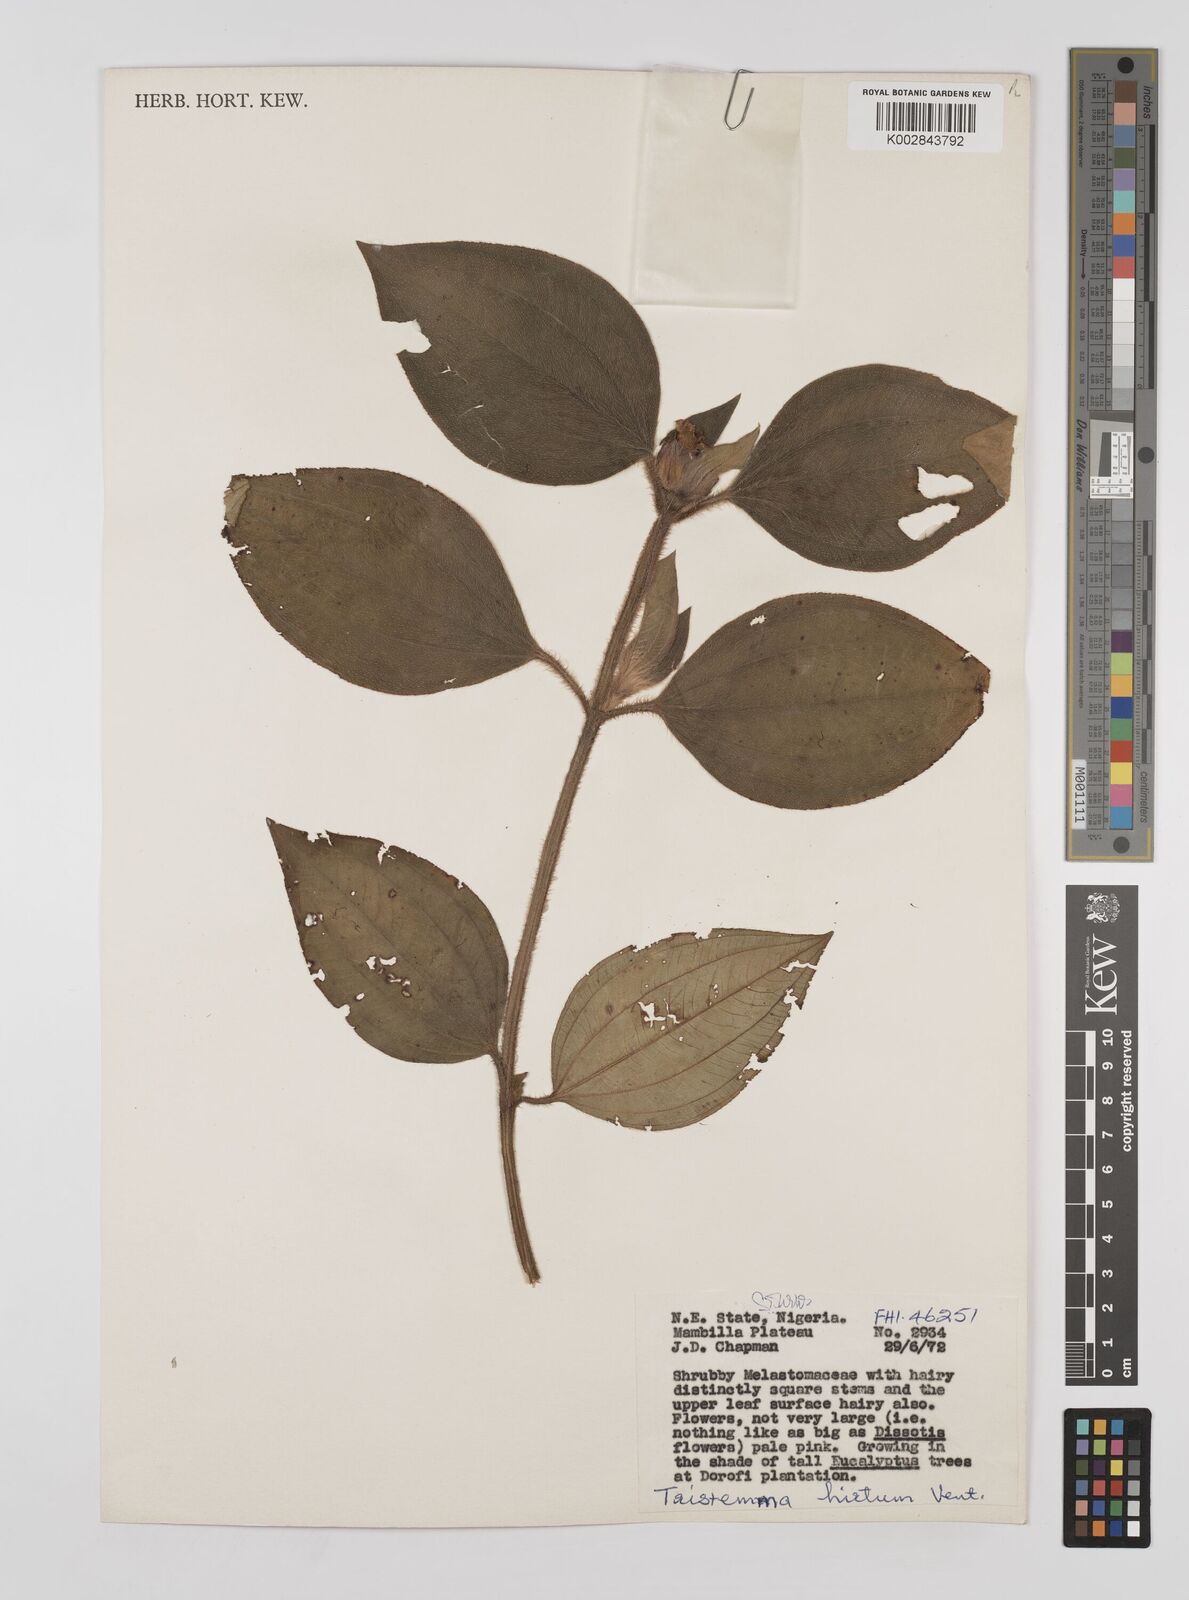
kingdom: Plantae
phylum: Tracheophyta
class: Magnoliopsida
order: Myrtales
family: Melastomataceae
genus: Tristemma
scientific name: Tristemma hirtum
